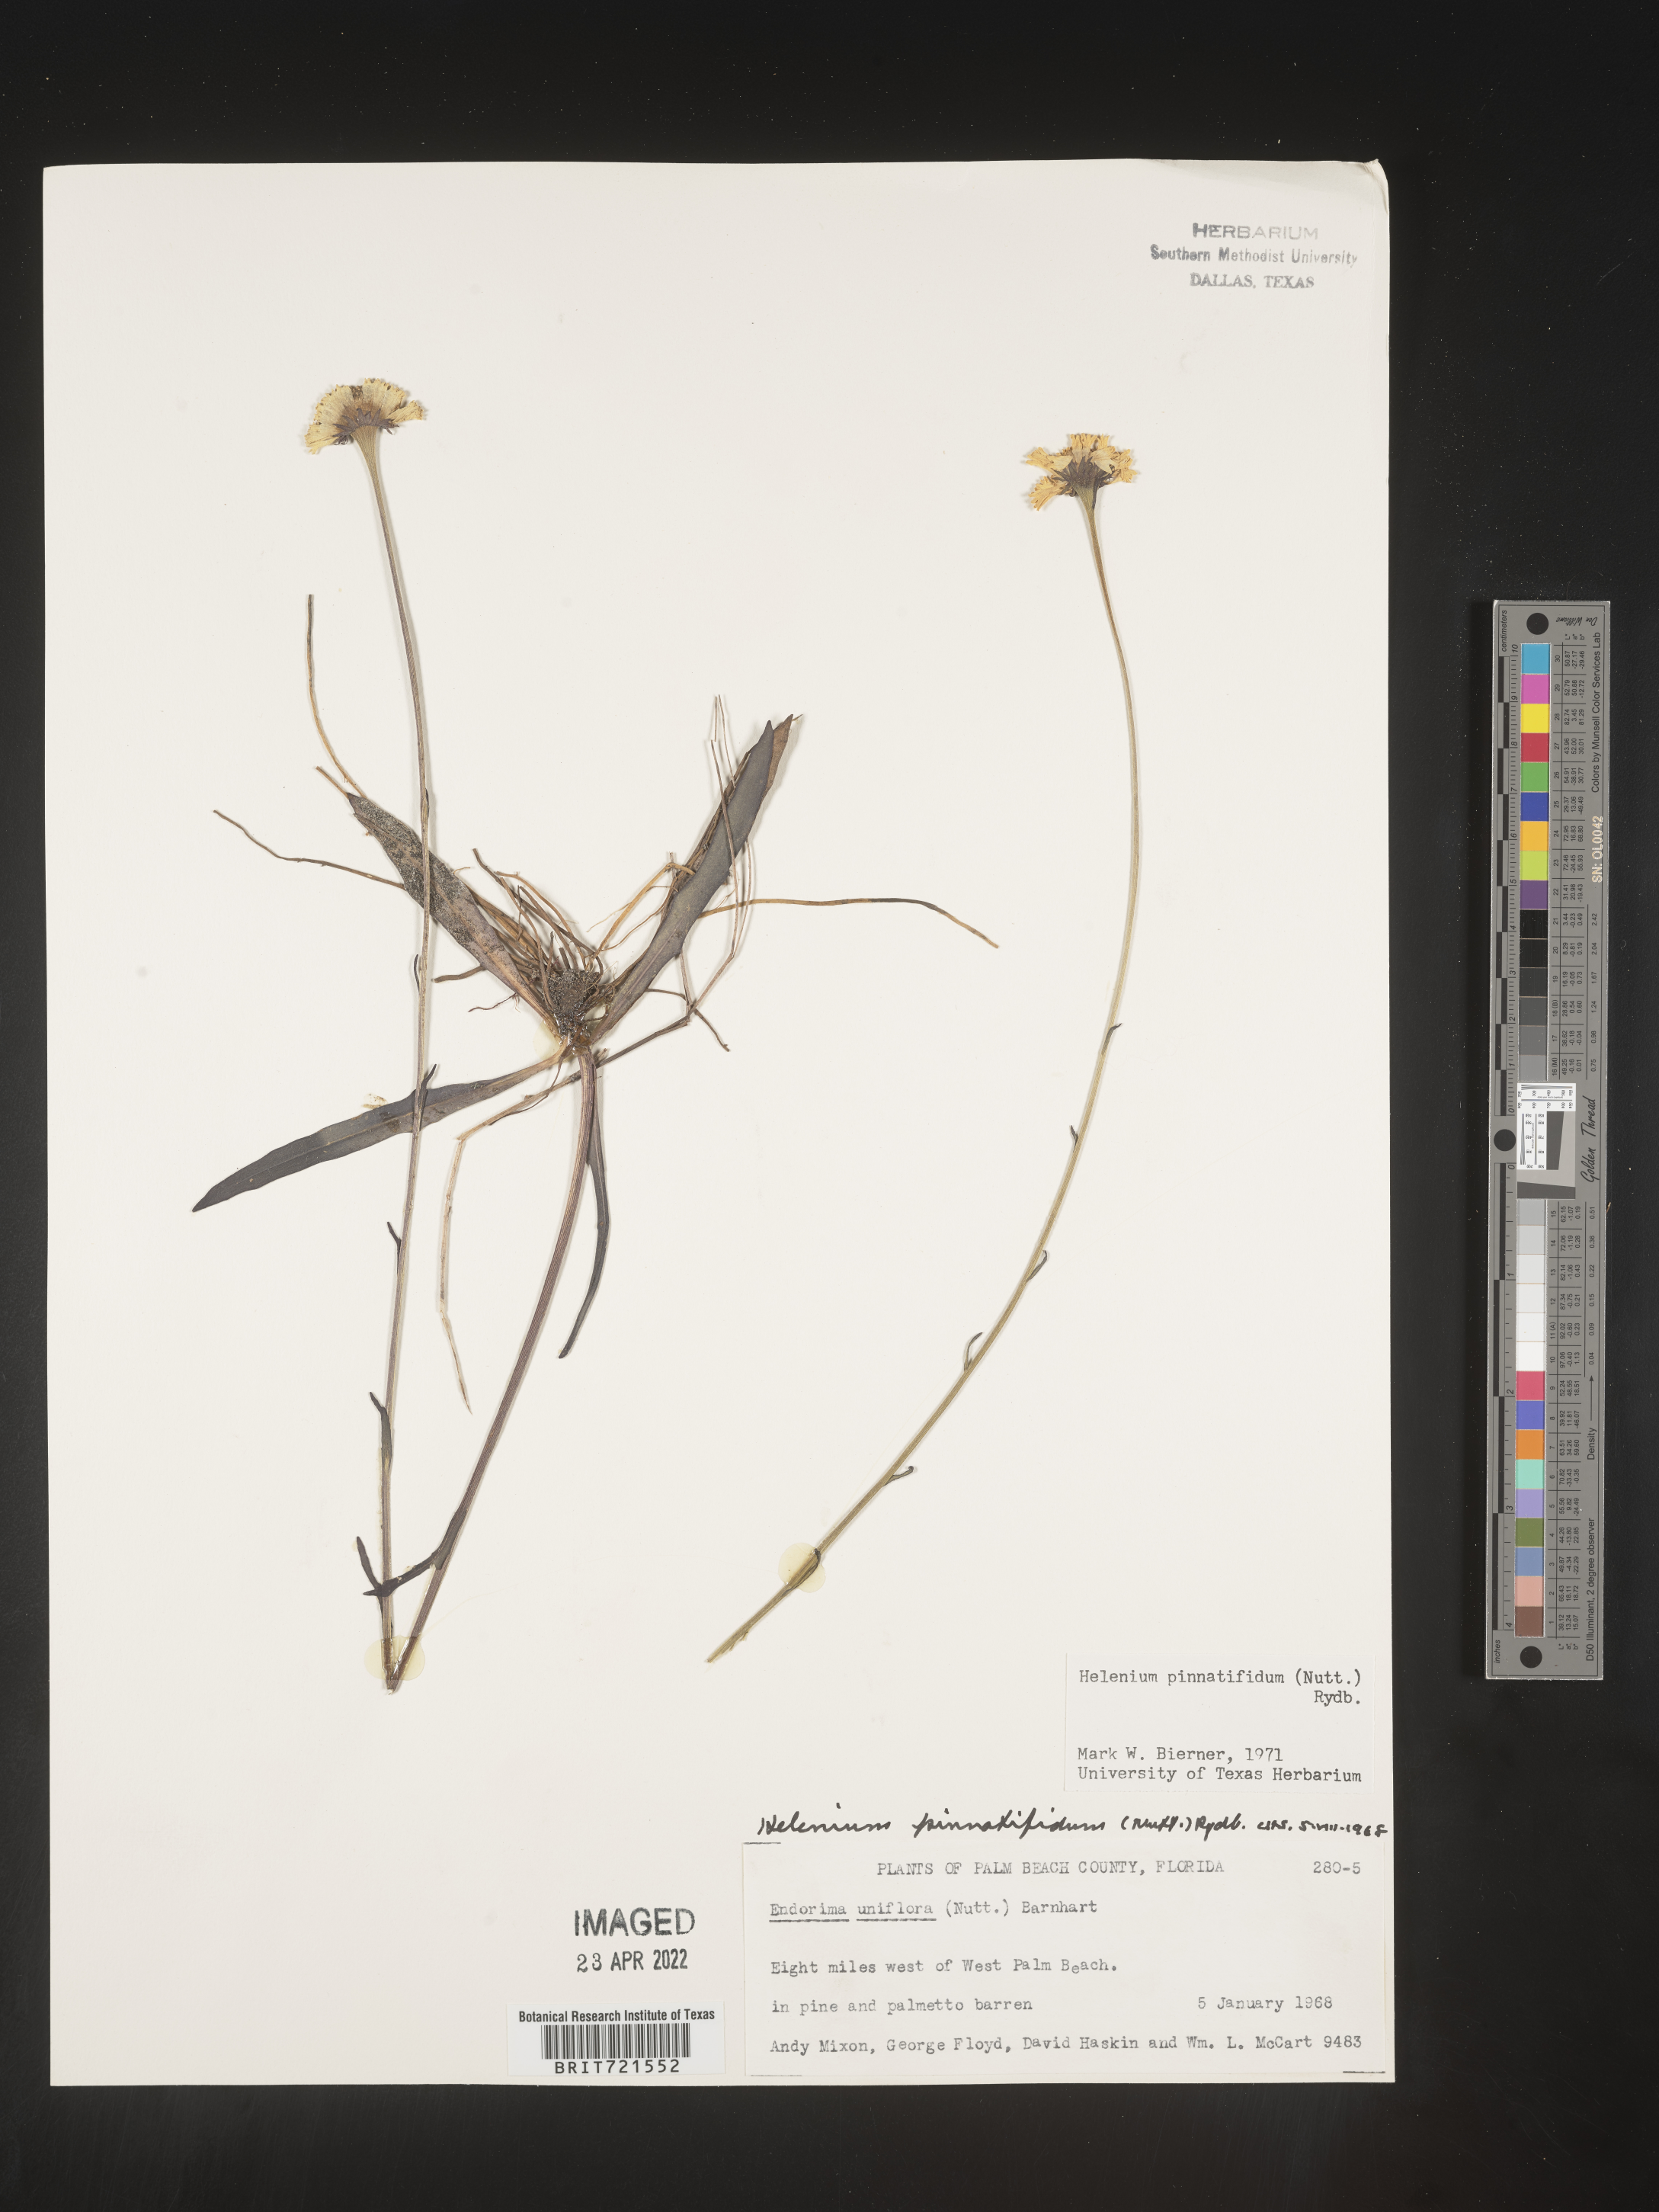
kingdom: Plantae
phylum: Tracheophyta
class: Magnoliopsida
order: Asterales
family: Asteraceae
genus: Helenium
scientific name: Helenium pinnatifidum
